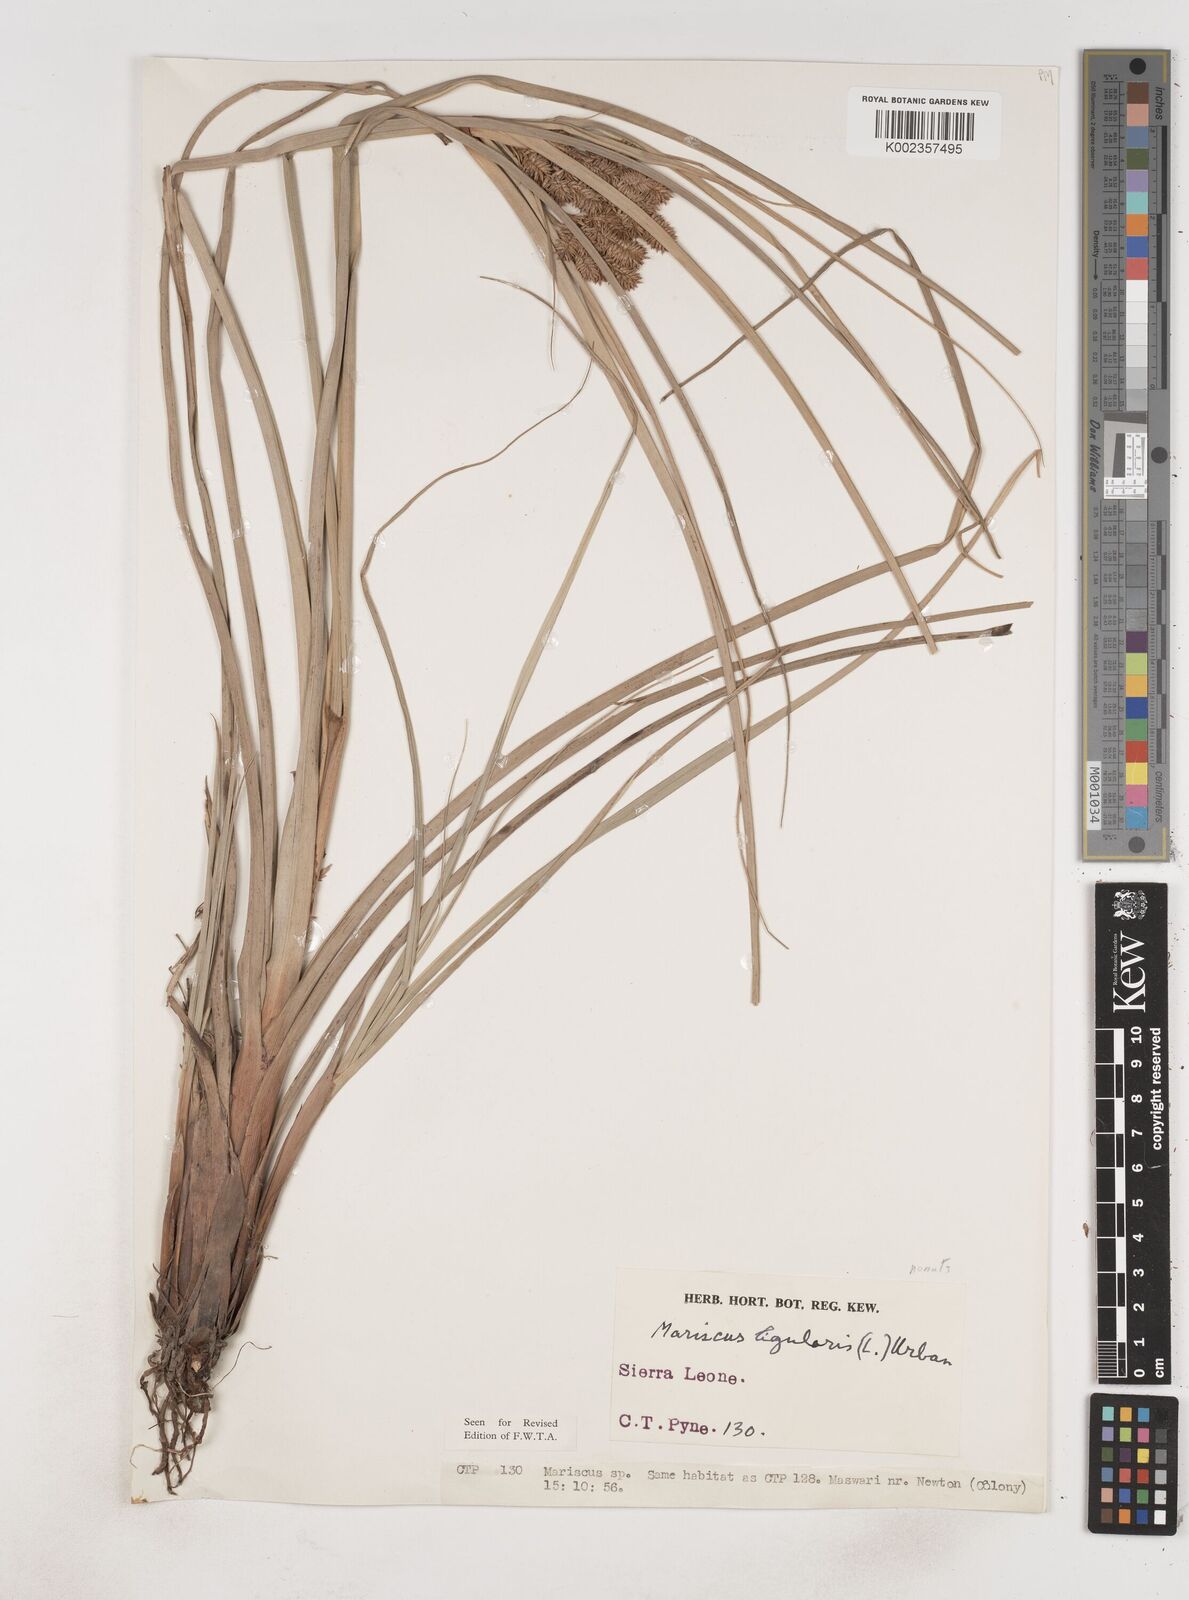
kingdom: Plantae
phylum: Tracheophyta
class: Liliopsida
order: Poales
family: Cyperaceae
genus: Cyperus
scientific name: Cyperus ligularis
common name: Swamp flat sedge
